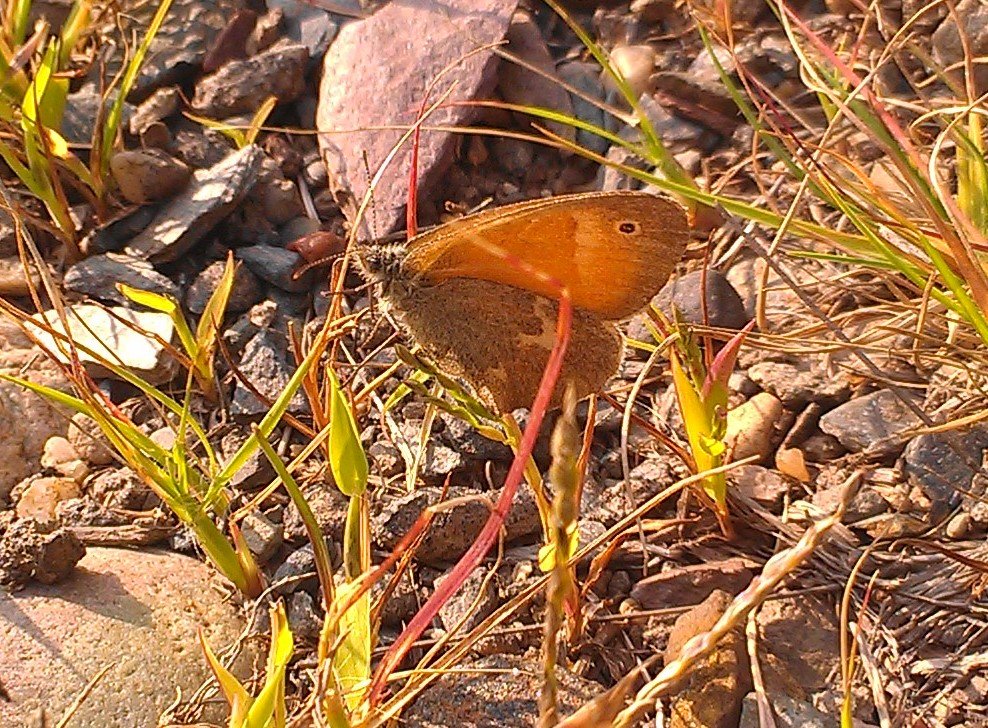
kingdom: Animalia
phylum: Arthropoda
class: Insecta
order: Lepidoptera
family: Nymphalidae
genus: Coenonympha
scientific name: Coenonympha tullia
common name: Large Heath
